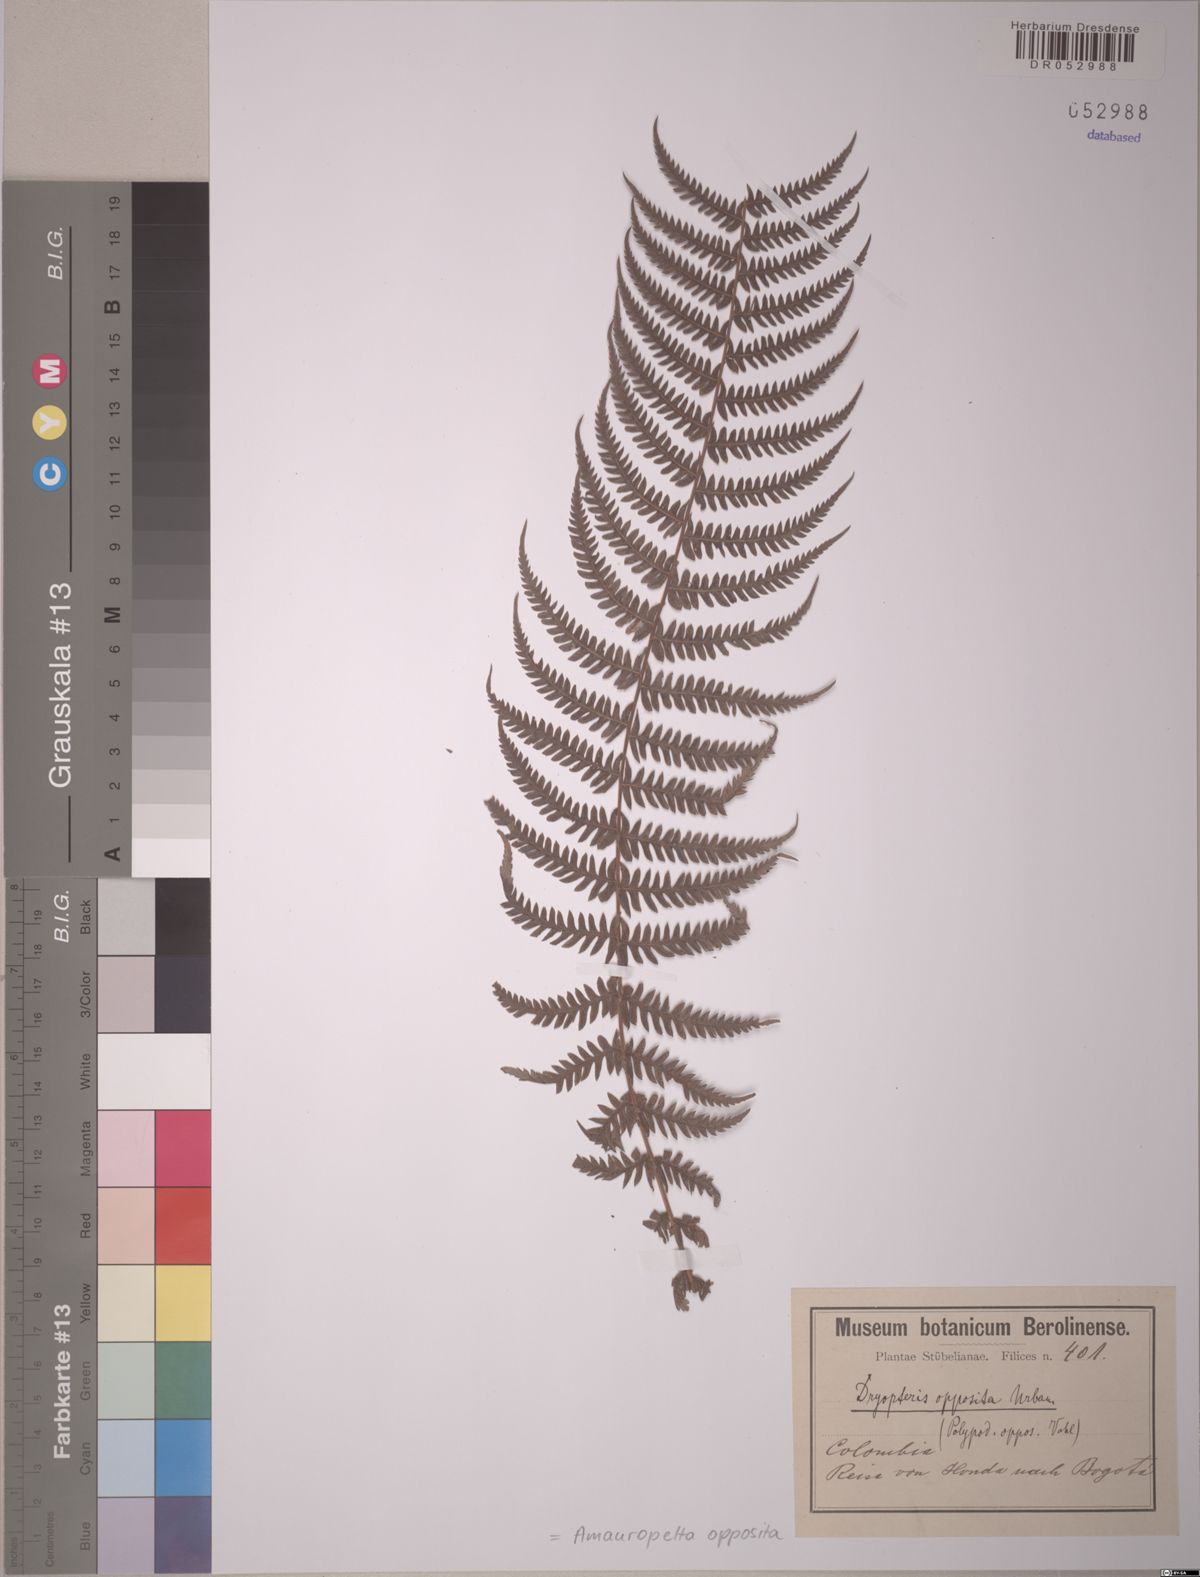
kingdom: Plantae
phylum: Tracheophyta
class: Polypodiopsida
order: Polypodiales
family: Thelypteridaceae
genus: Amauropelta
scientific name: Amauropelta opposita
